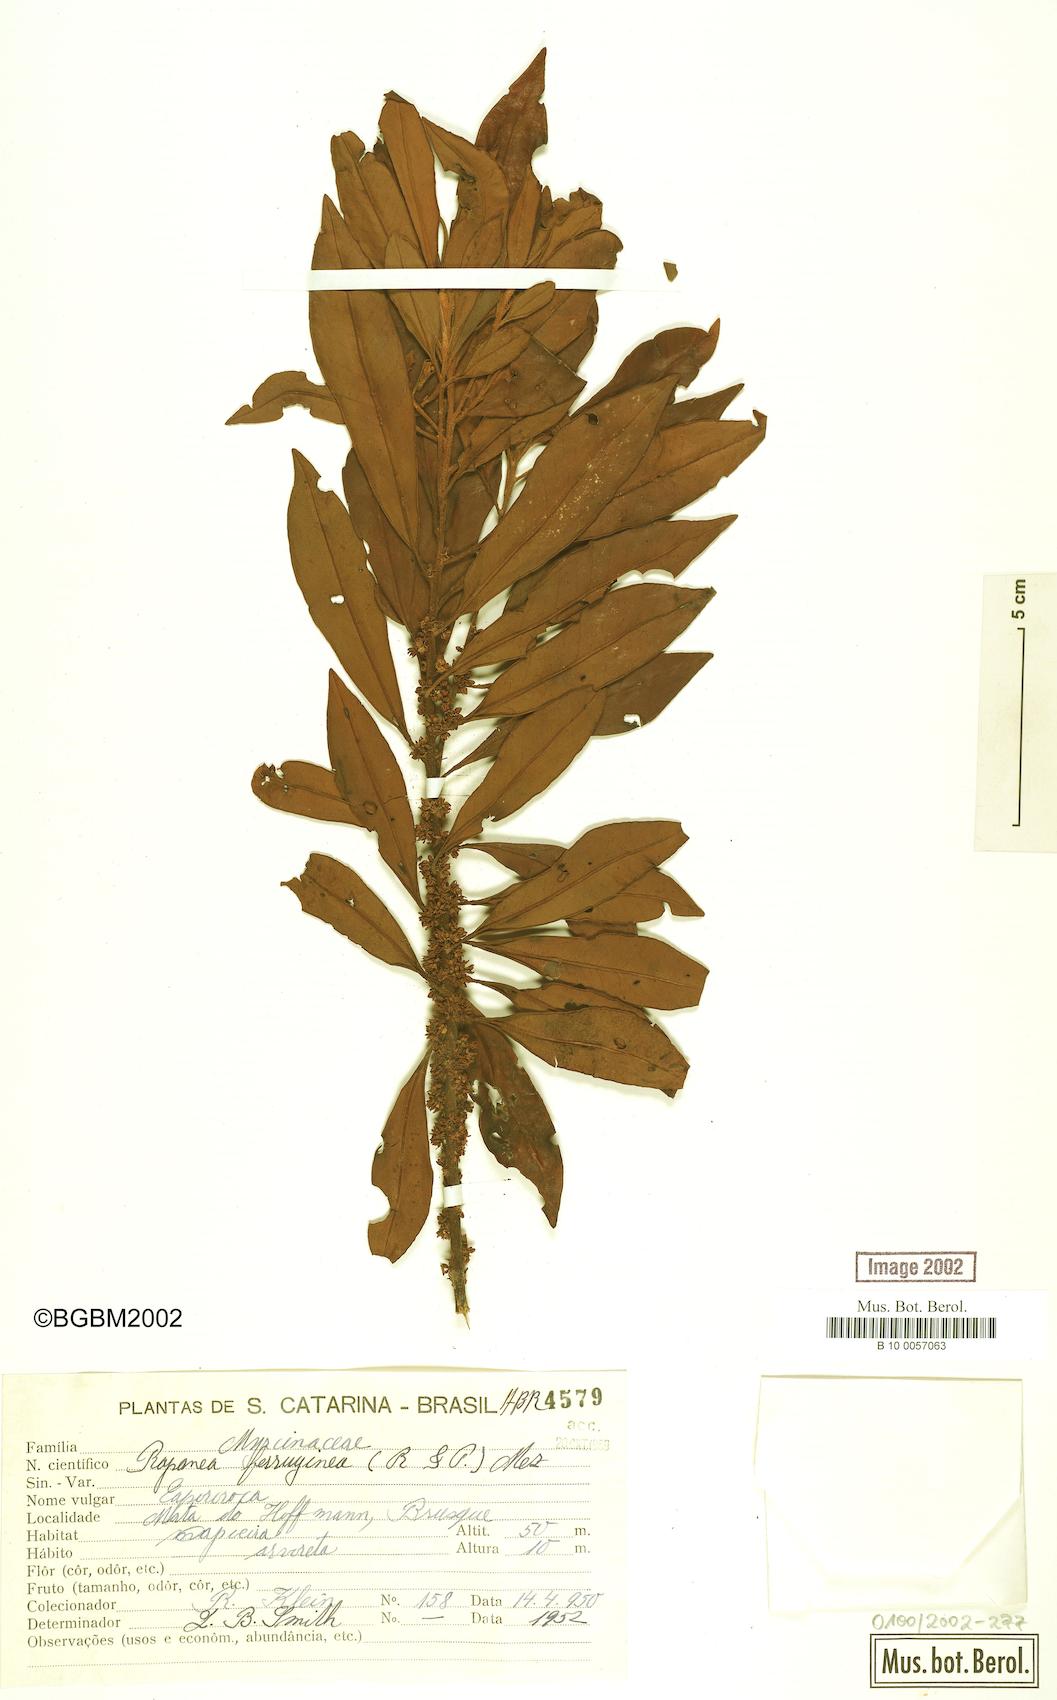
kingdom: Plantae
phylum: Tracheophyta
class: Magnoliopsida
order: Ericales
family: Primulaceae
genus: Myrsine
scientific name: Myrsine coriacea
